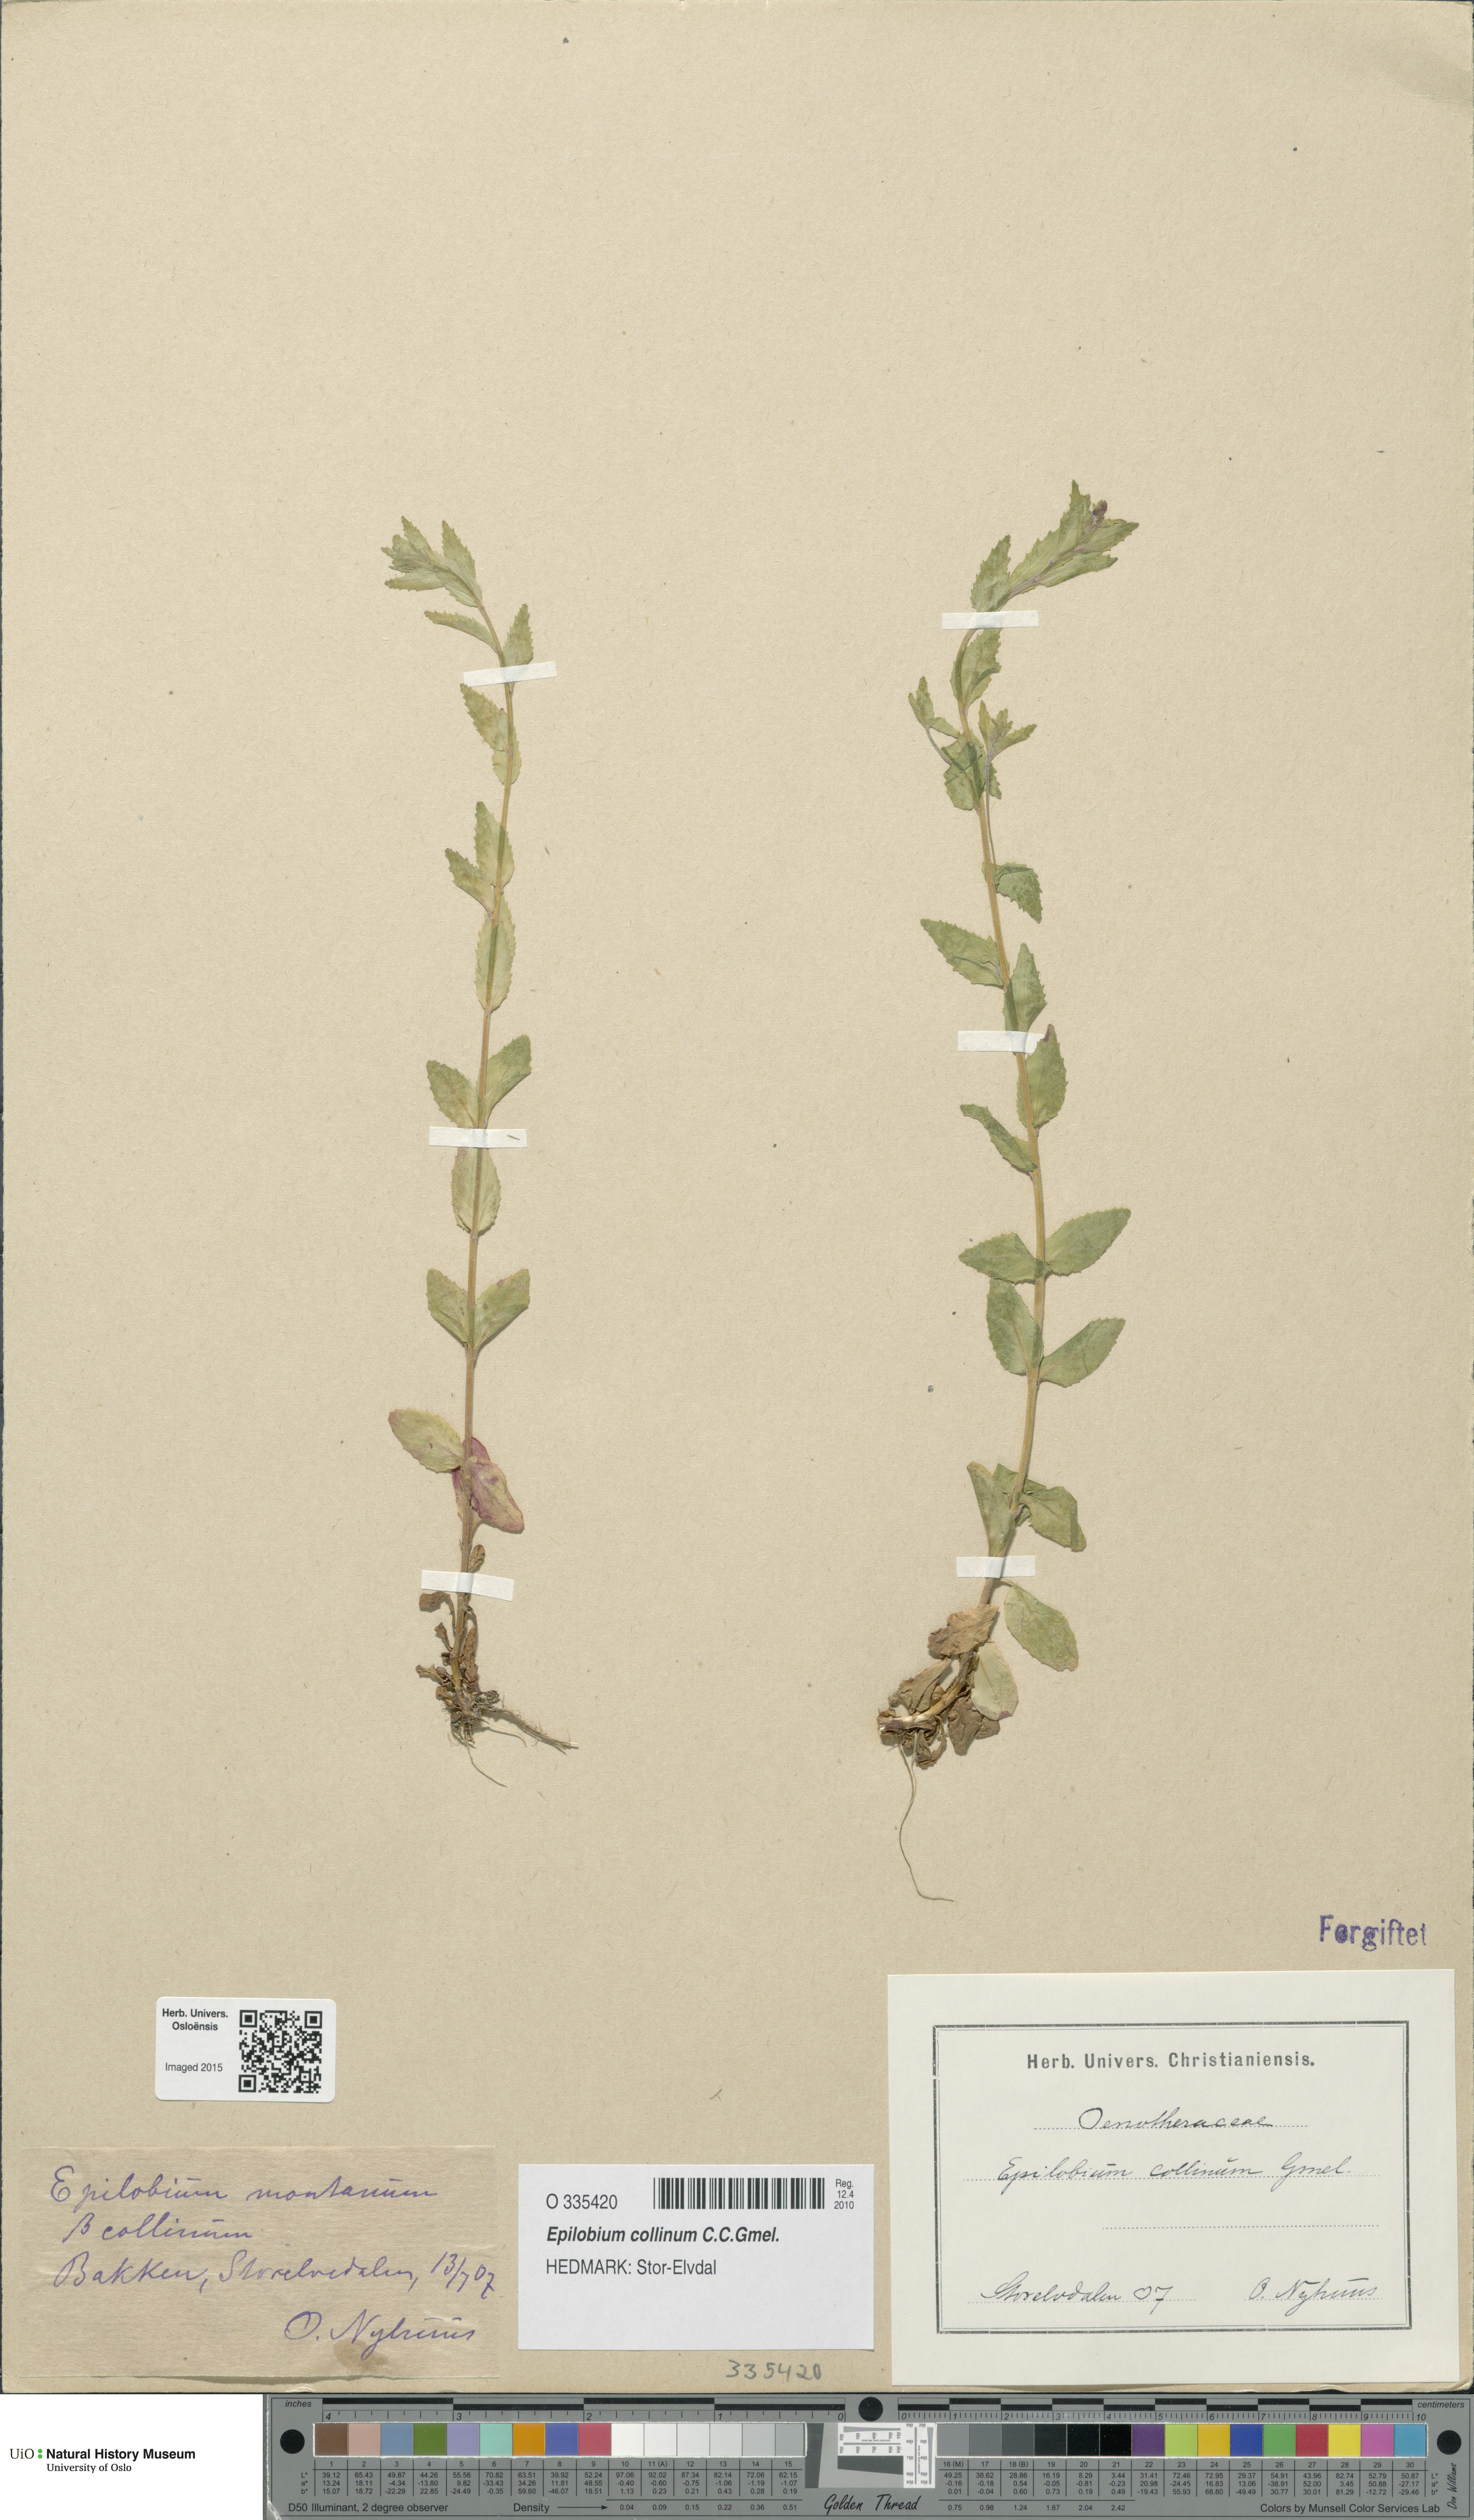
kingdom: Plantae
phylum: Tracheophyta
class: Magnoliopsida
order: Myrtales
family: Onagraceae
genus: Epilobium
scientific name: Epilobium collinum
